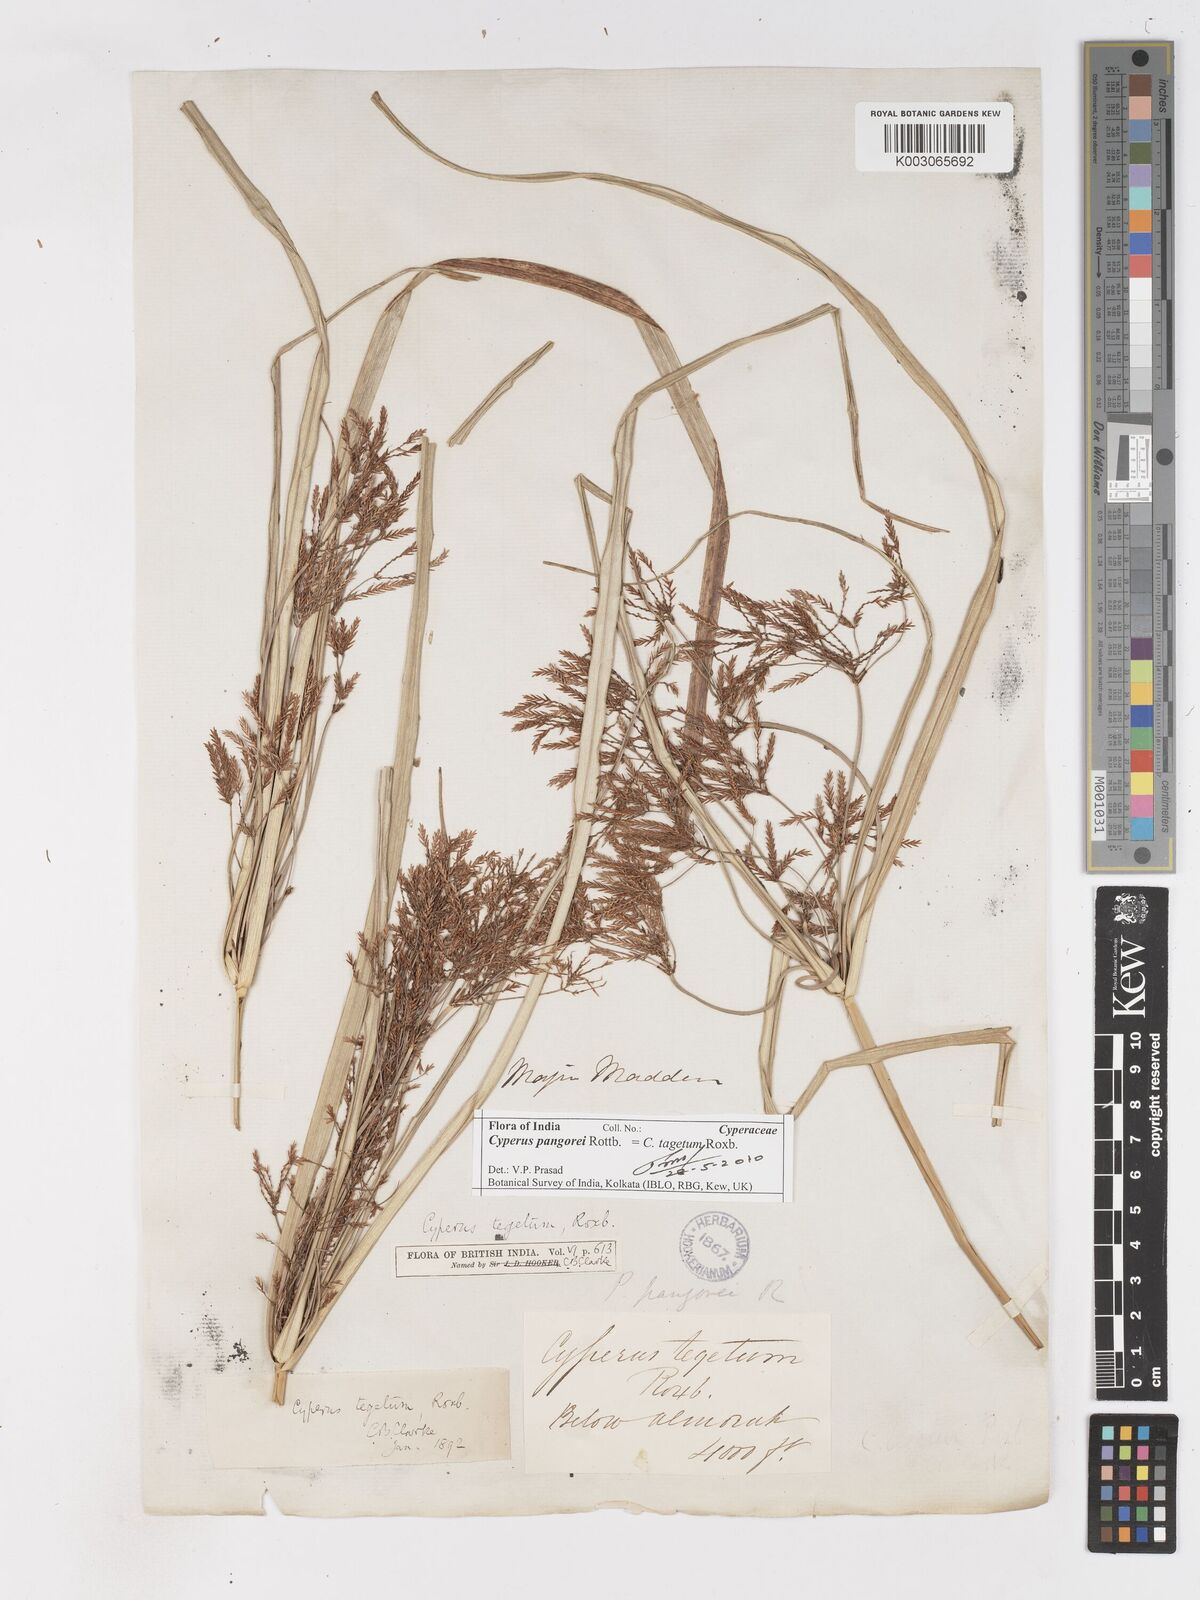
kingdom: Plantae
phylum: Tracheophyta
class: Liliopsida
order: Poales
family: Cyperaceae
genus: Cyperus
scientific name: Cyperus pangorei
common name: Mat sedge
